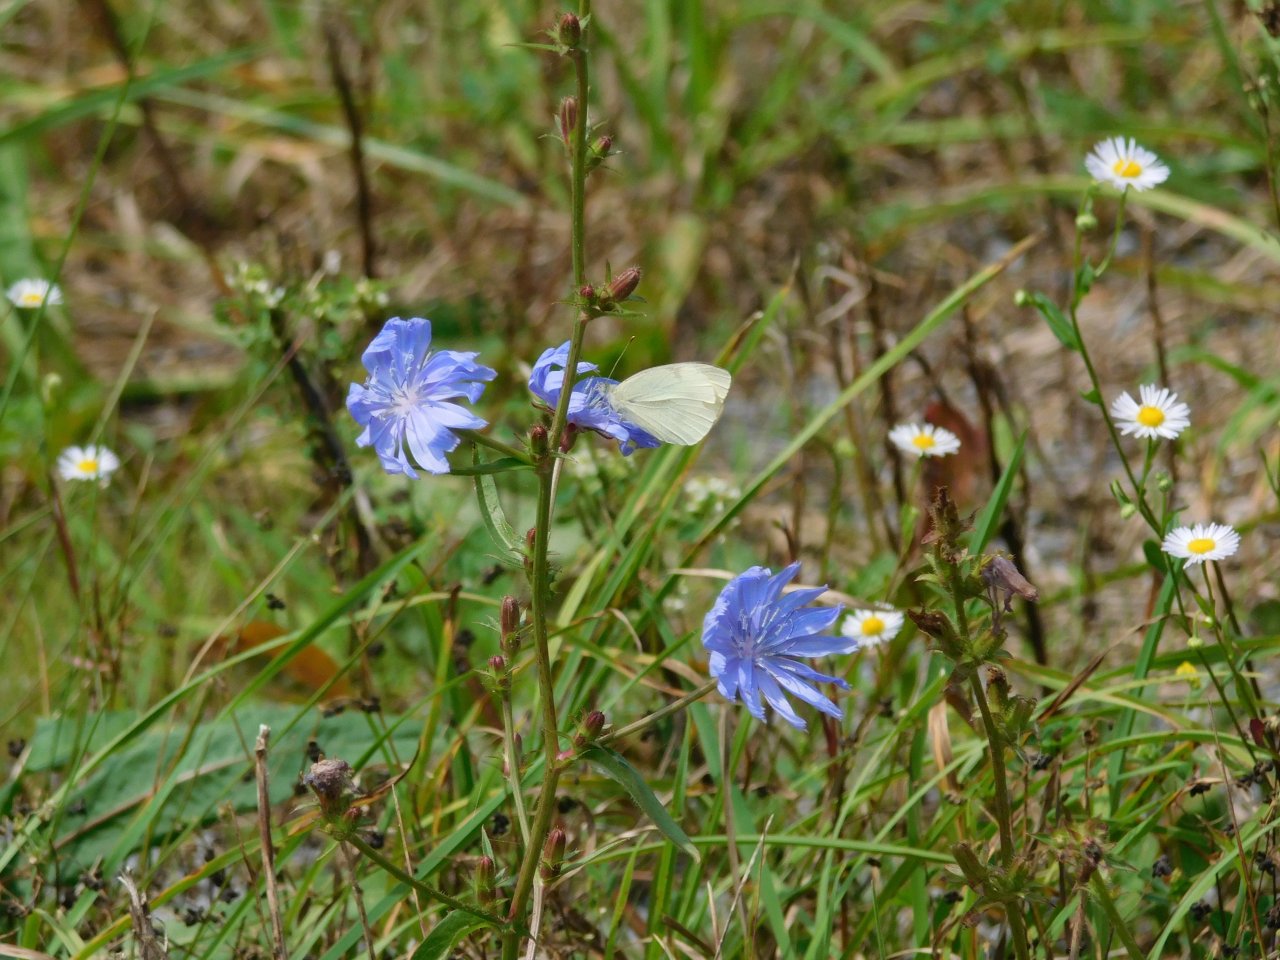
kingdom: Animalia
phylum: Arthropoda
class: Insecta
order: Lepidoptera
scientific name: Lepidoptera
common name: Butterflies
